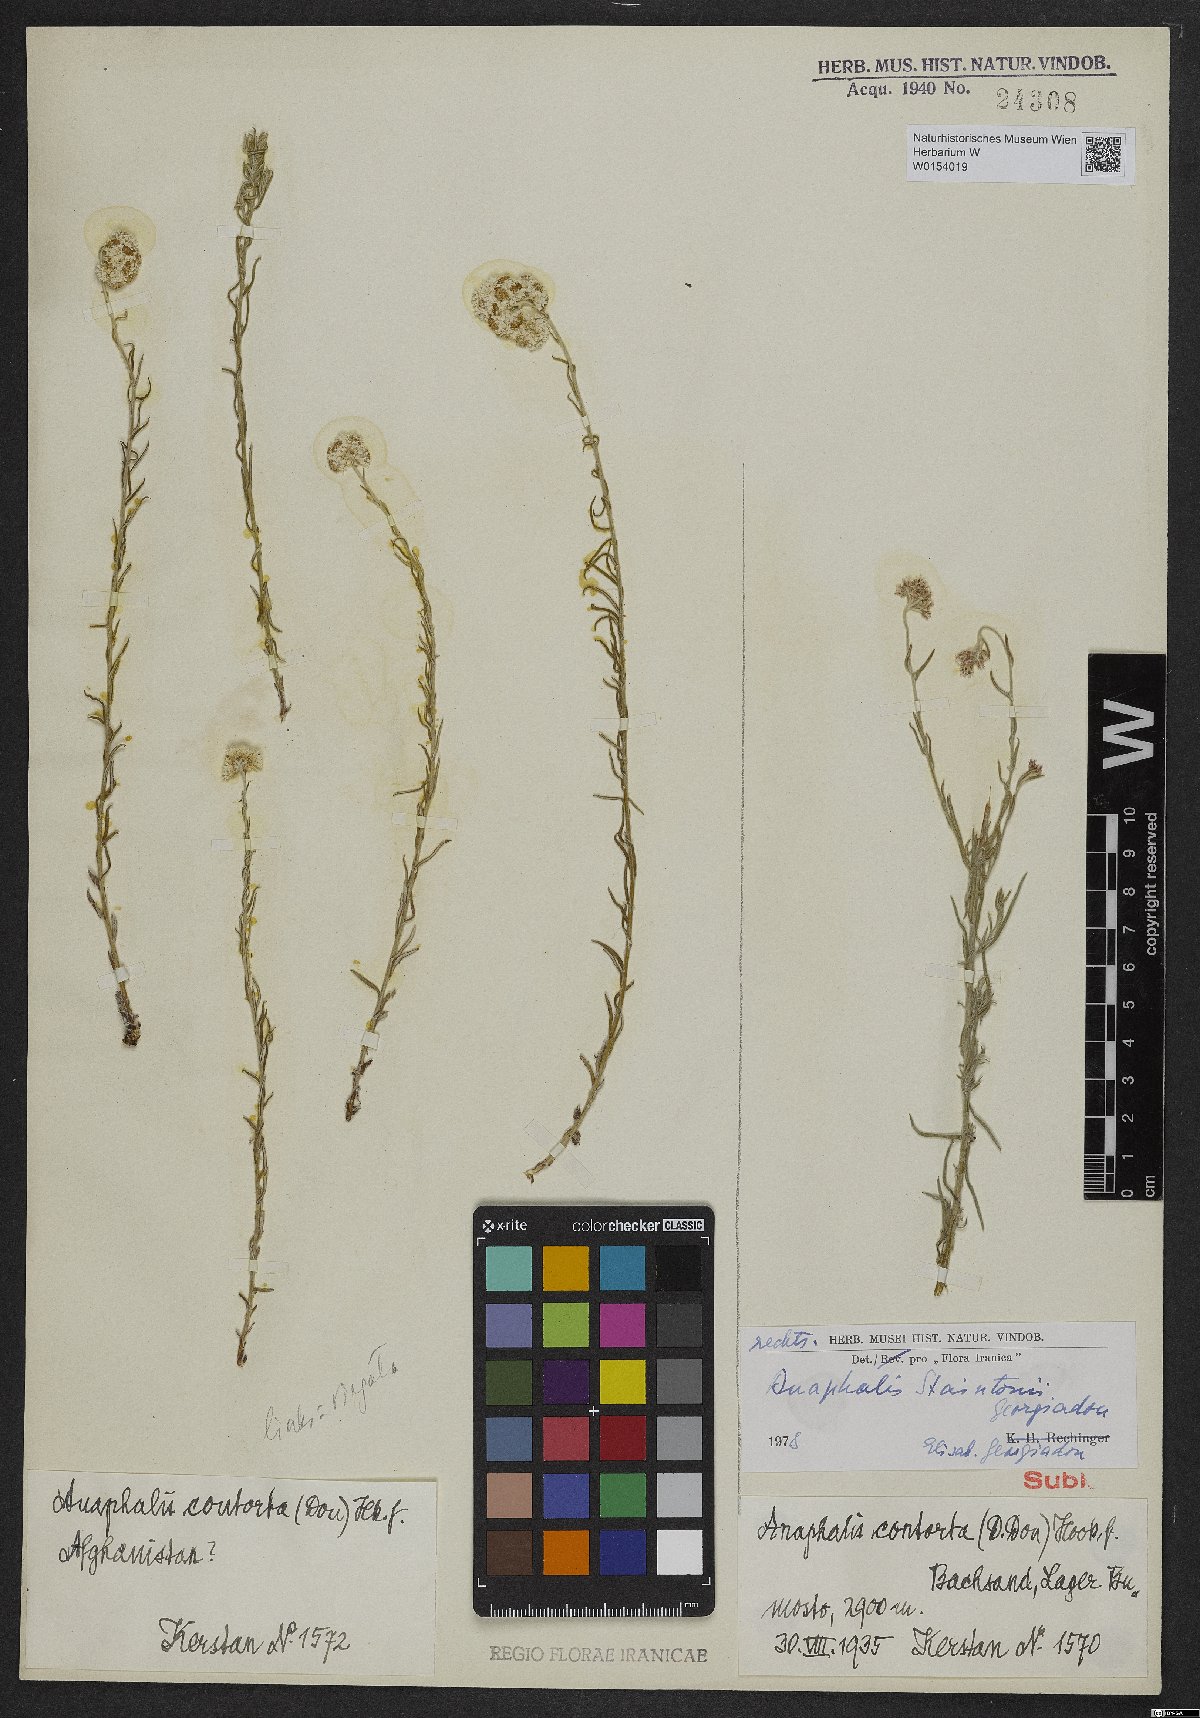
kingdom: Plantae
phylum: Tracheophyta
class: Magnoliopsida
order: Asterales
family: Asteraceae
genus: Anaphalis
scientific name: Anaphalis staintonii
